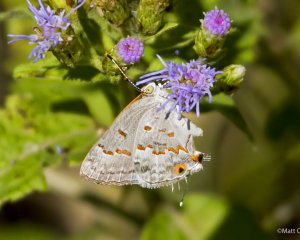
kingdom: Animalia
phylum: Arthropoda
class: Insecta
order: Lepidoptera
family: Lycaenidae
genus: Ministrymon
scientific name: Ministrymon clytie
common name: Clytie Ministreak
